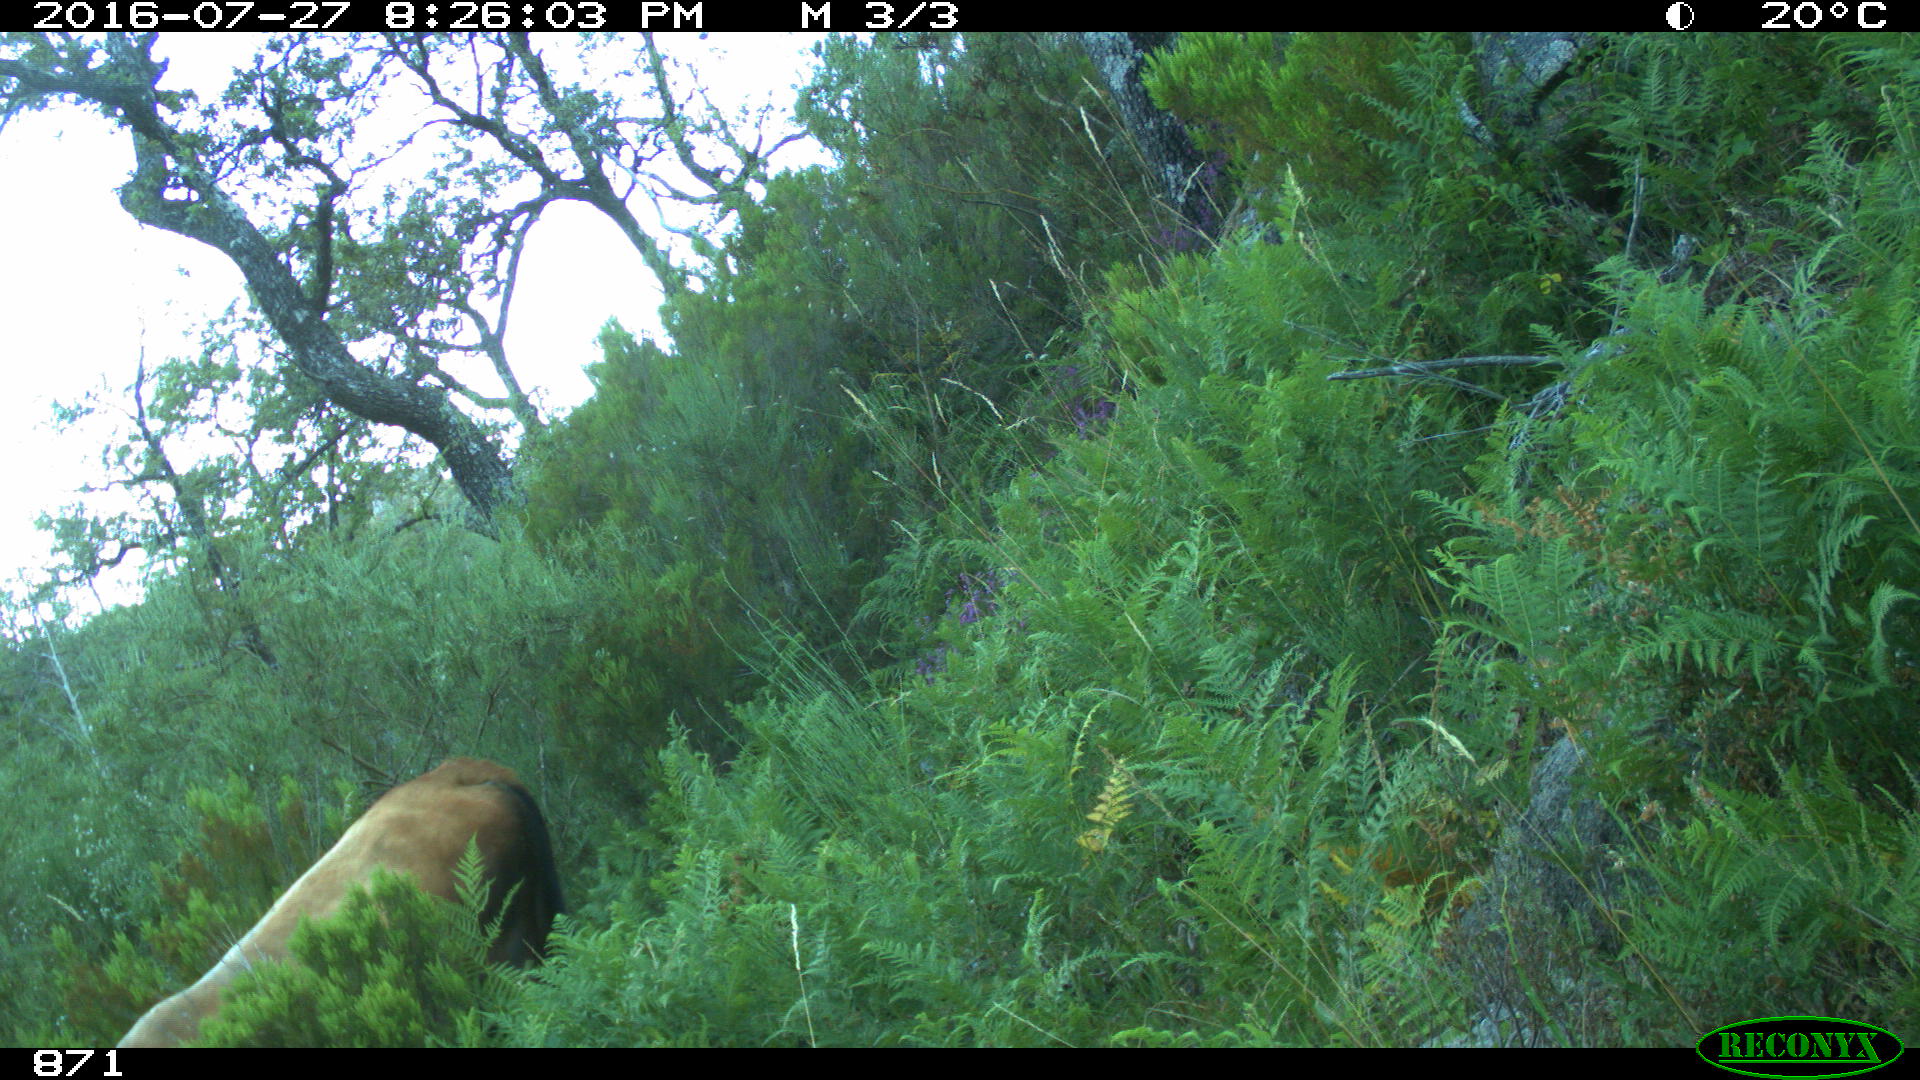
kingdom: Animalia
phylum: Chordata
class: Mammalia
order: Artiodactyla
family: Bovidae
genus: Bos
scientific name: Bos taurus
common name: Domesticated cattle
